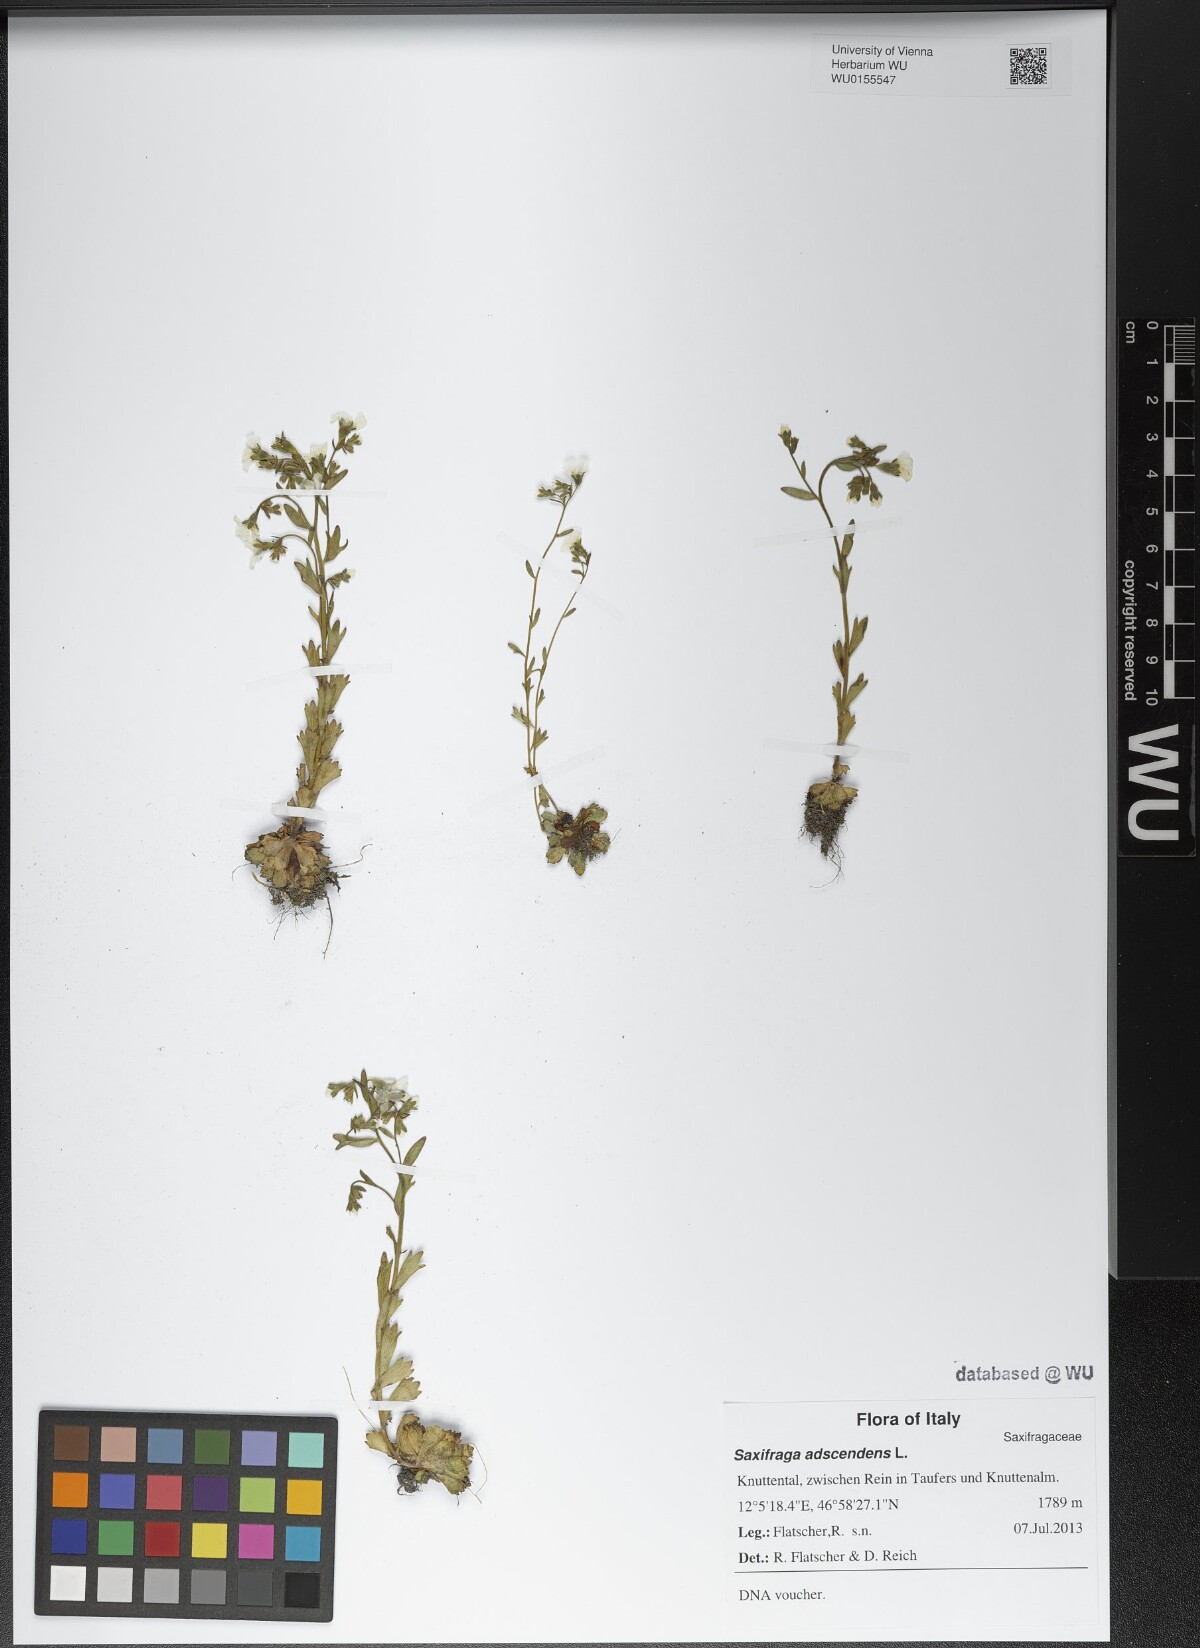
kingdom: Plantae
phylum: Tracheophyta
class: Magnoliopsida
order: Saxifragales
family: Saxifragaceae
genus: Saxifraga
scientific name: Saxifraga adscendens
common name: Ascending saxifrage
